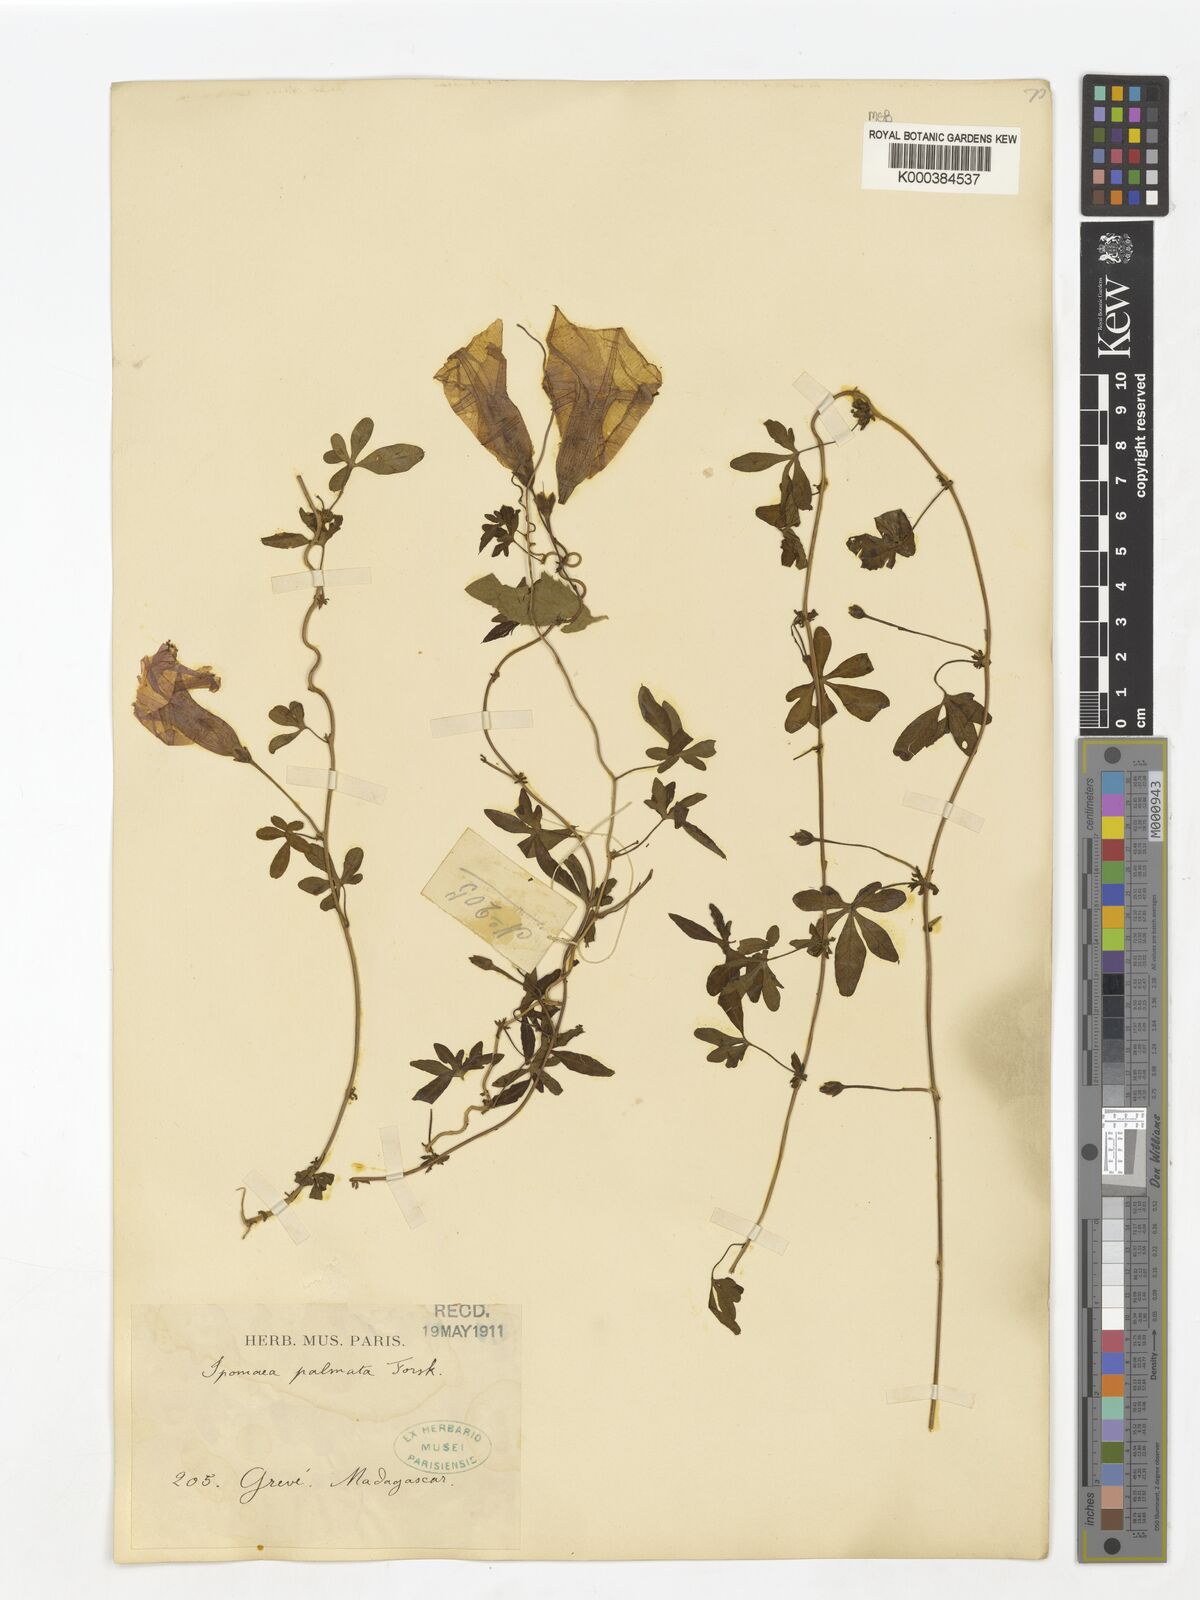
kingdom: Plantae
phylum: Tracheophyta
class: Magnoliopsida
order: Solanales
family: Convolvulaceae
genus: Ipomoea
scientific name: Ipomoea cairica
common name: Mile a minute vine
